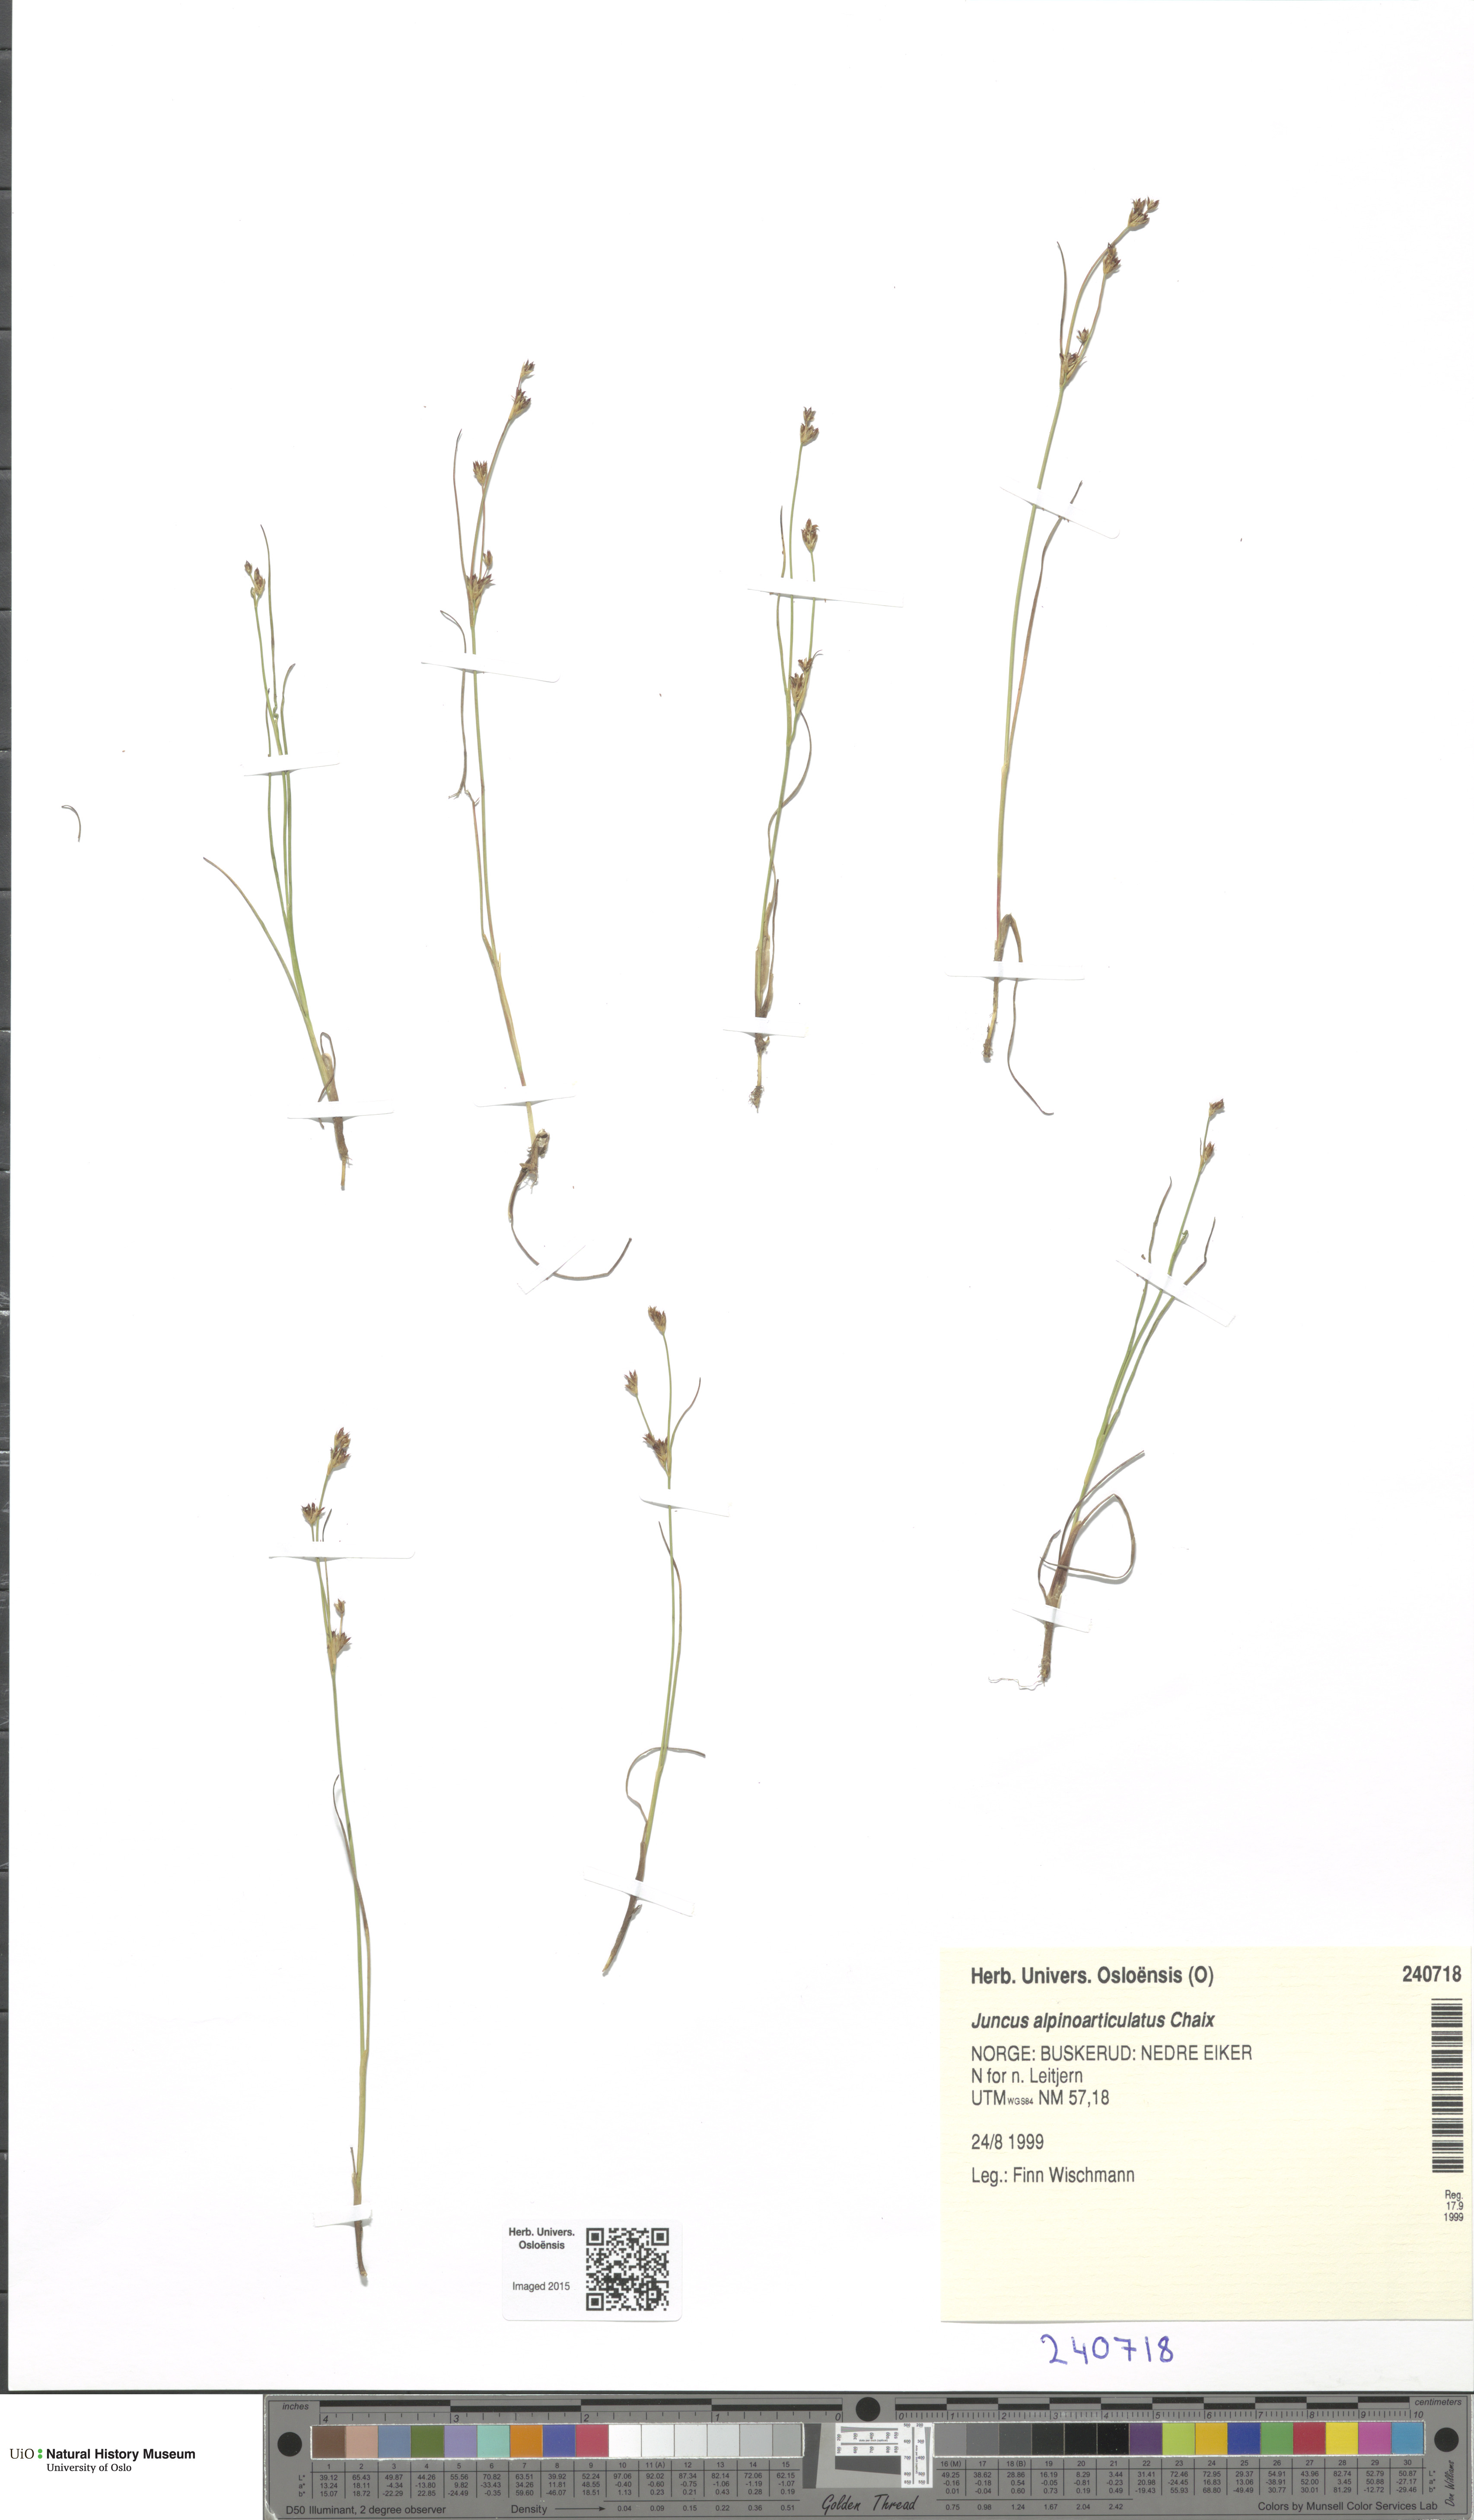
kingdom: Plantae
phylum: Tracheophyta
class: Liliopsida
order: Poales
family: Juncaceae
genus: Juncus
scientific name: Juncus alpinoarticulatus
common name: Alpine rush
